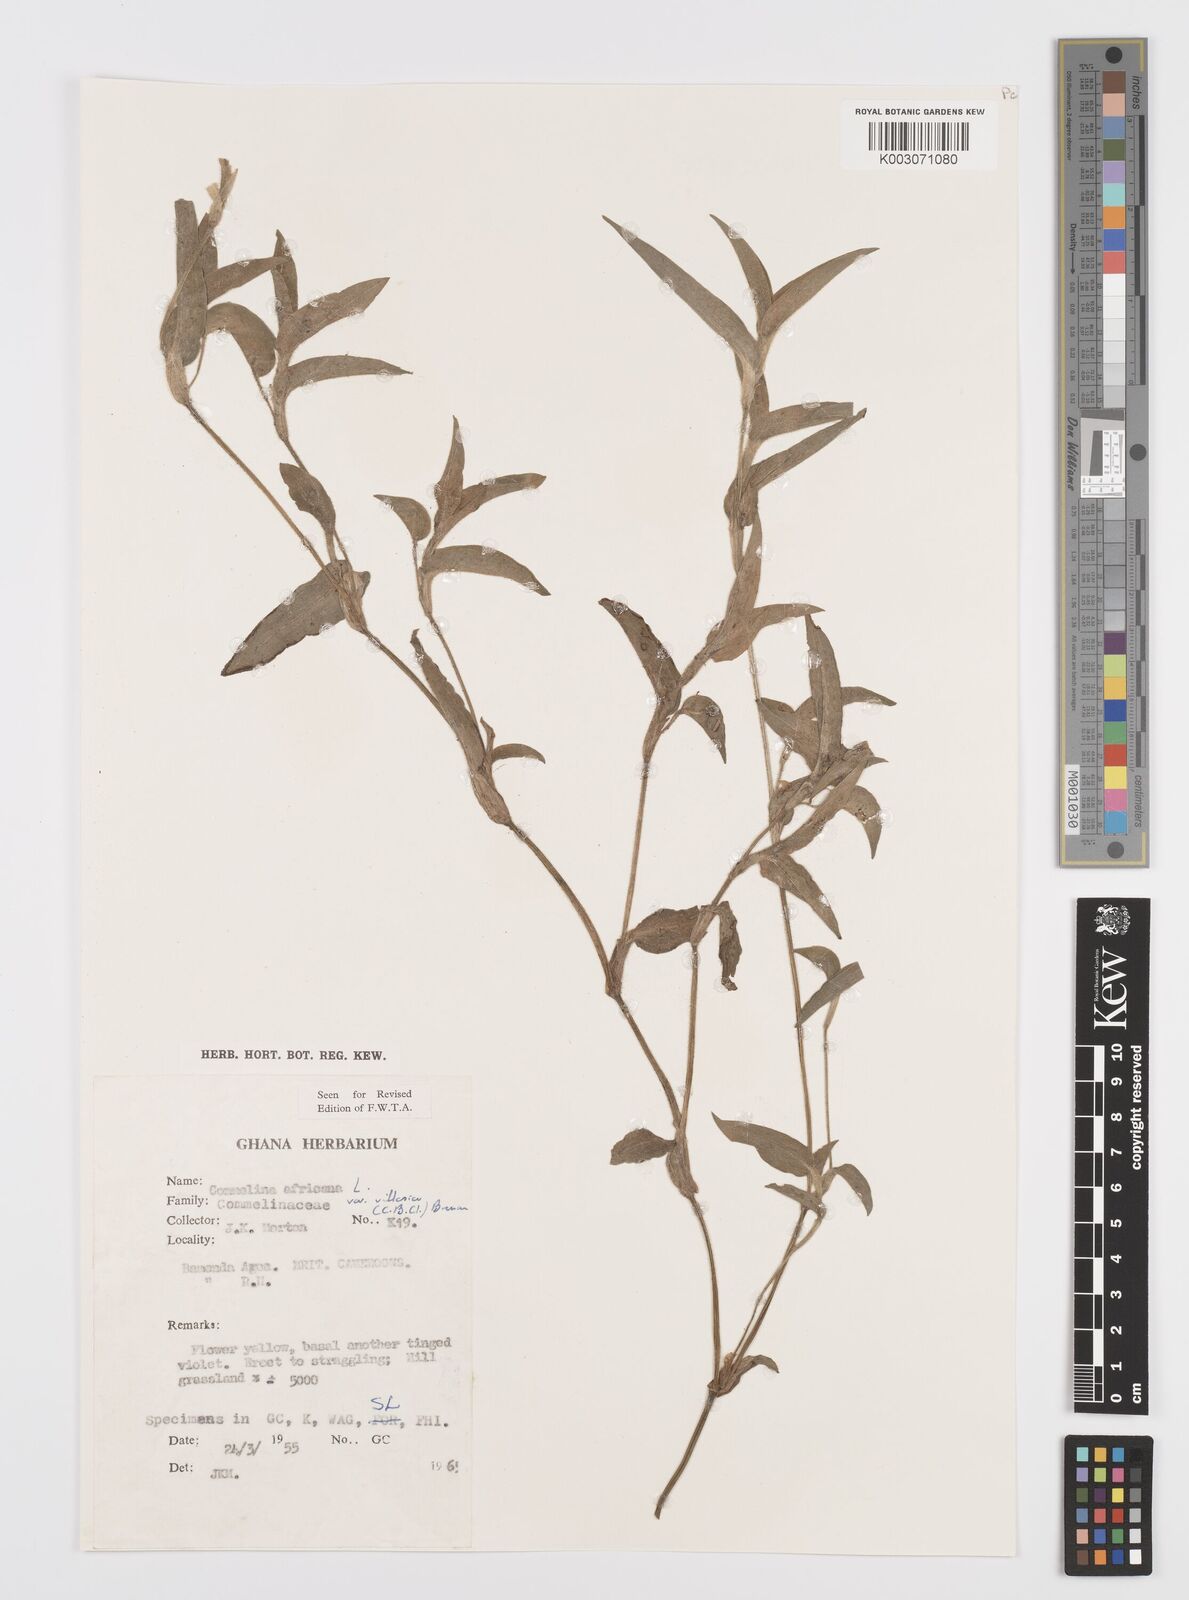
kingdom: Plantae
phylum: Tracheophyta
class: Liliopsida
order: Commelinales
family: Commelinaceae
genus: Commelina
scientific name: Commelina africana
